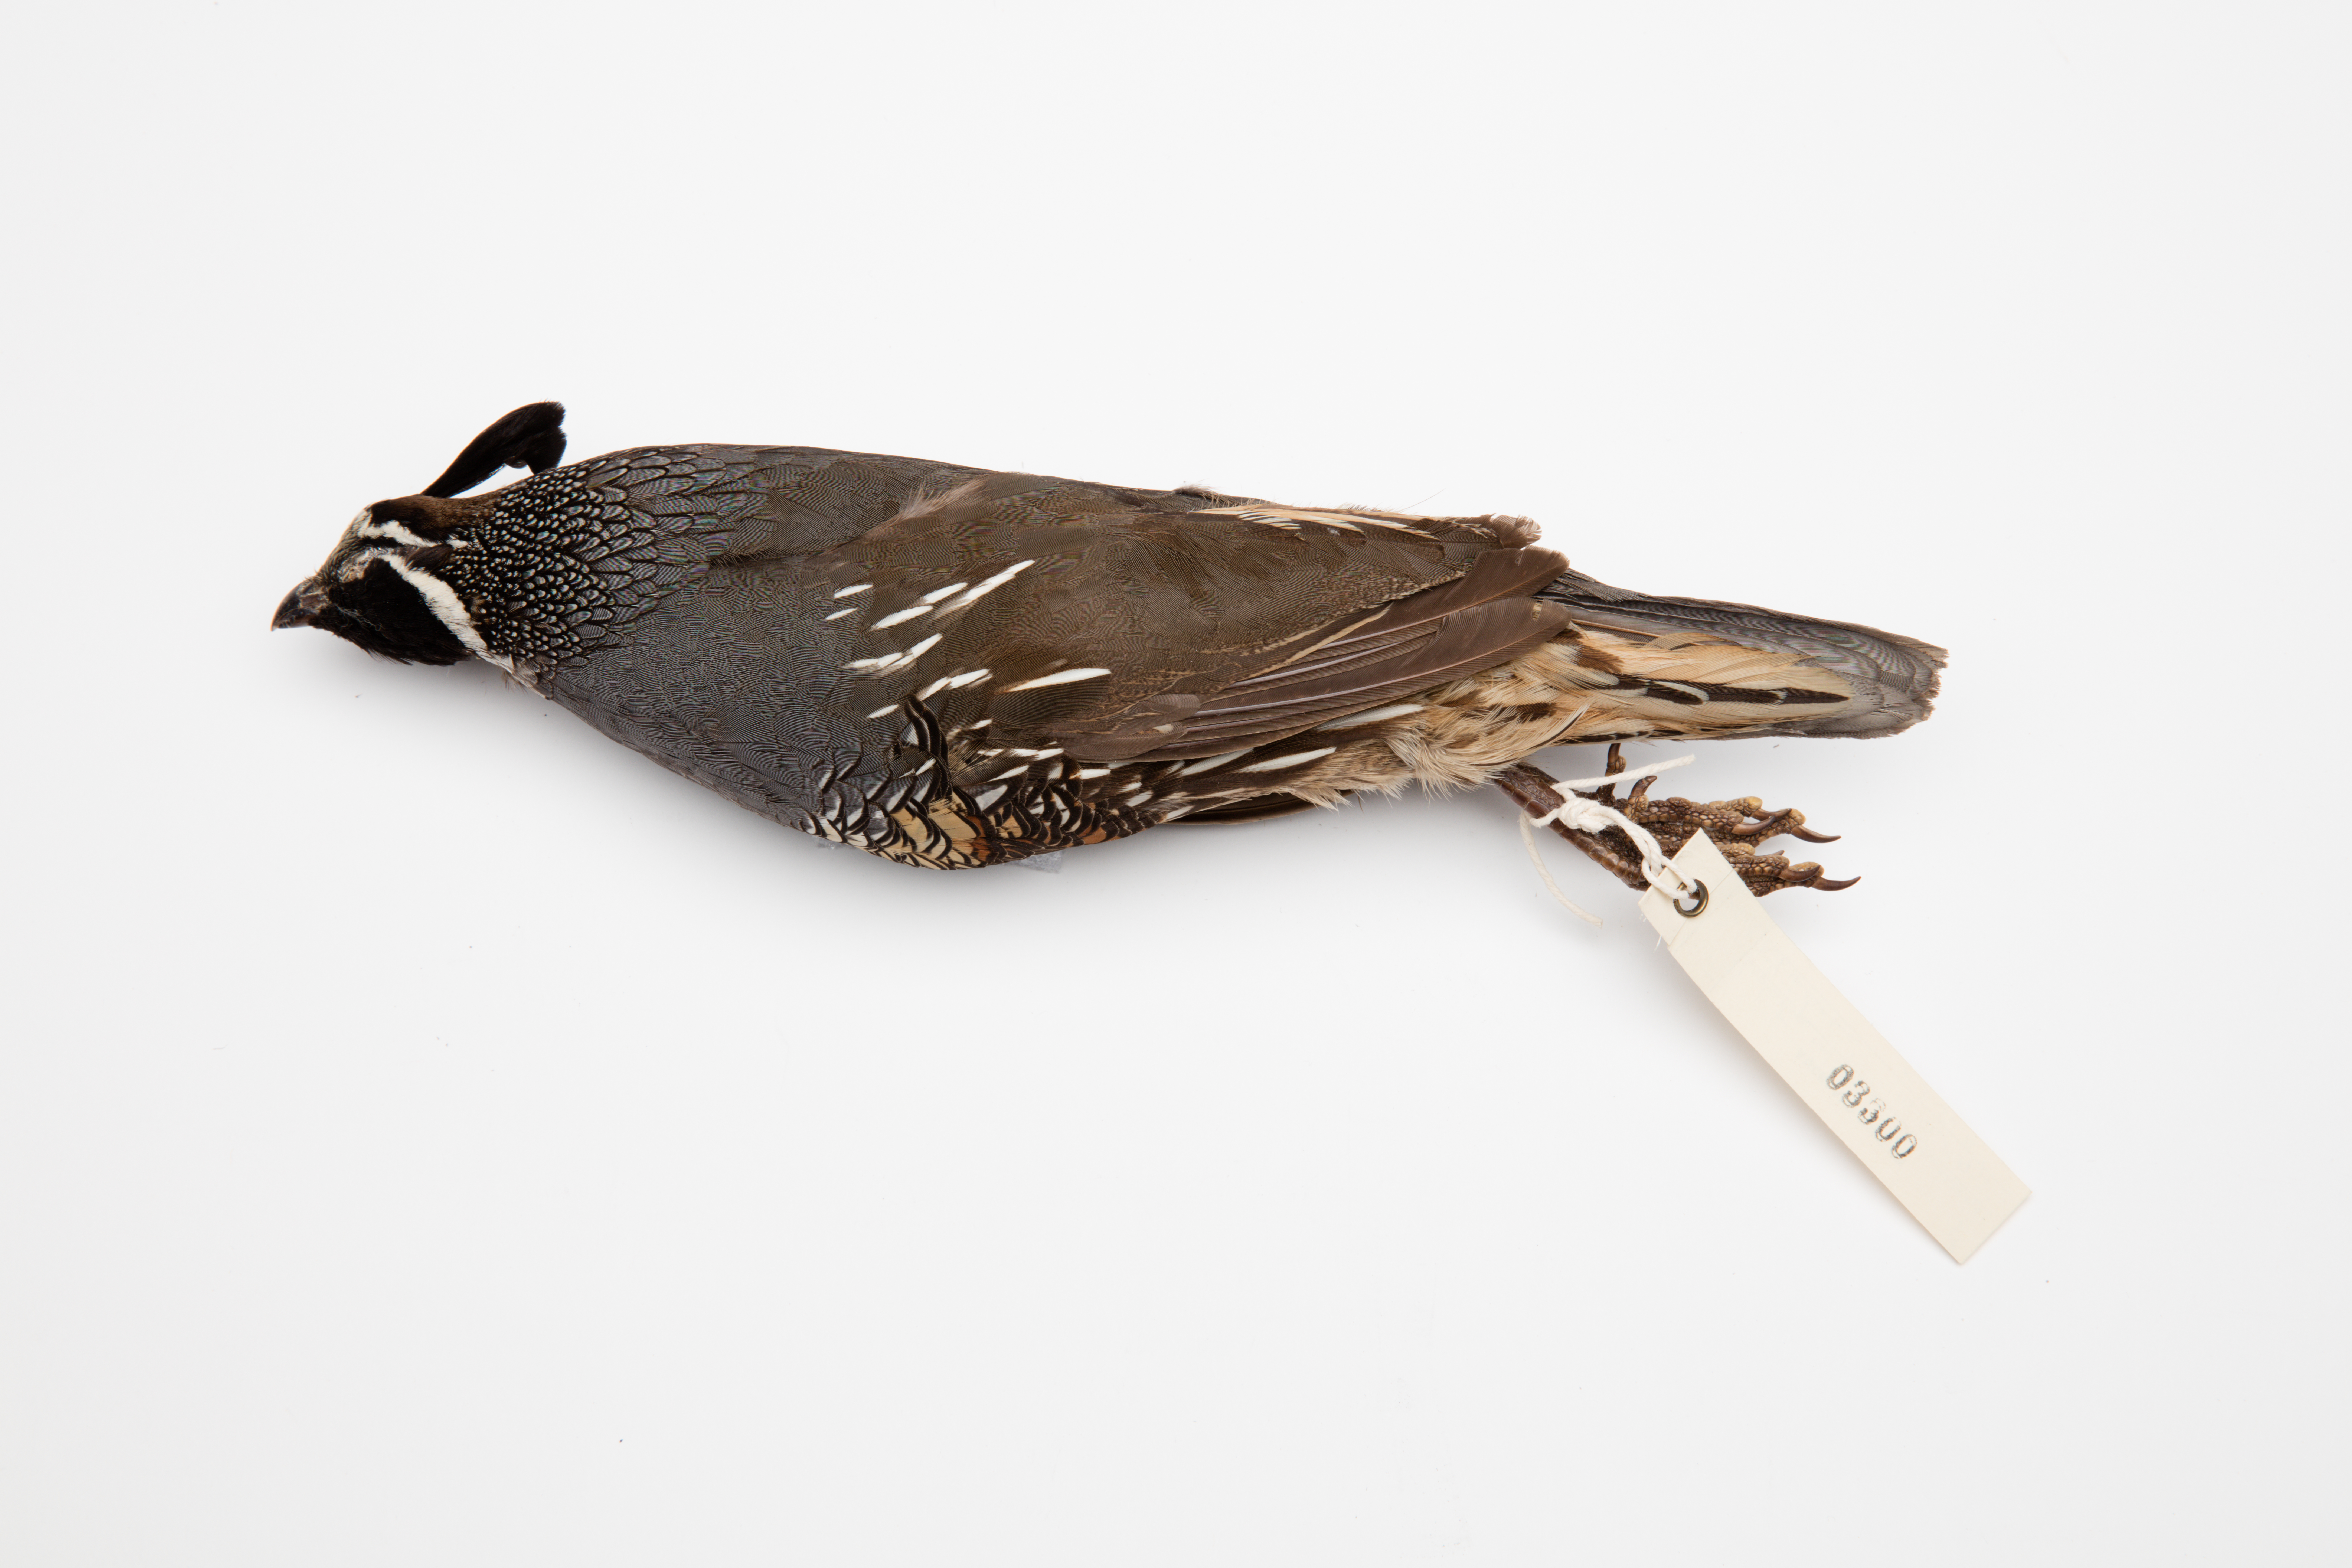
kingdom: Animalia
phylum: Chordata
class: Aves
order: Galliformes
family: Odontophoridae
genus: Callipepla
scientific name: Callipepla californica
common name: California quail
